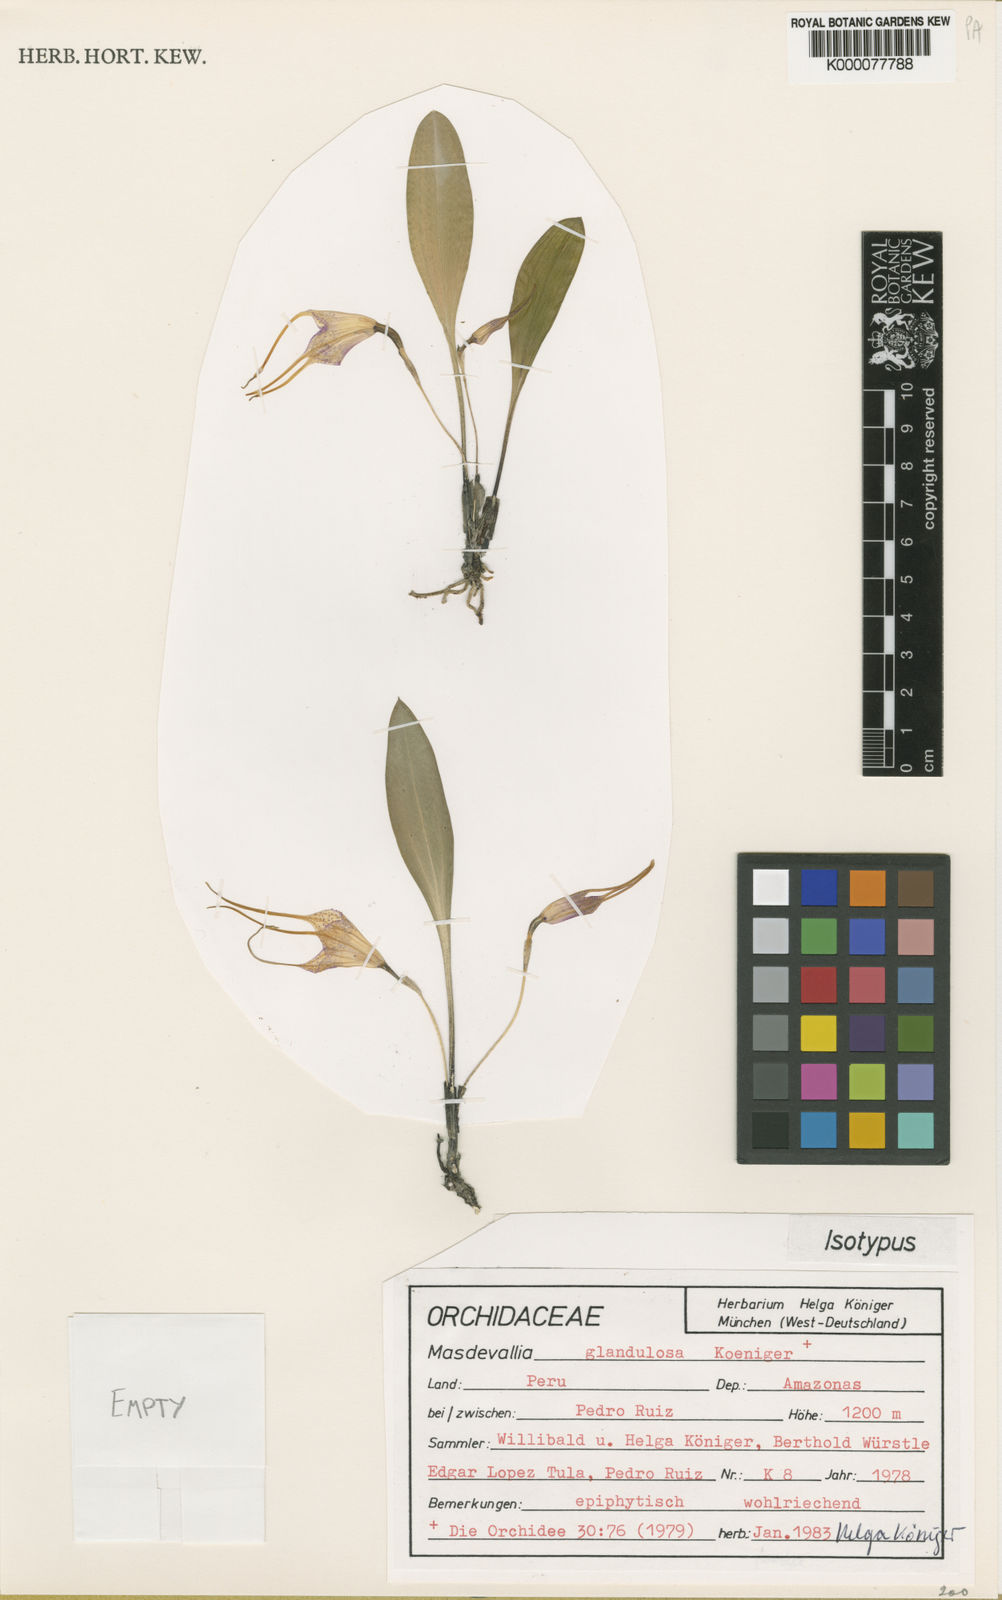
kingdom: Plantae
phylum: Tracheophyta
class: Liliopsida
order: Asparagales
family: Orchidaceae
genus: Masdevallia
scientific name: Masdevallia
